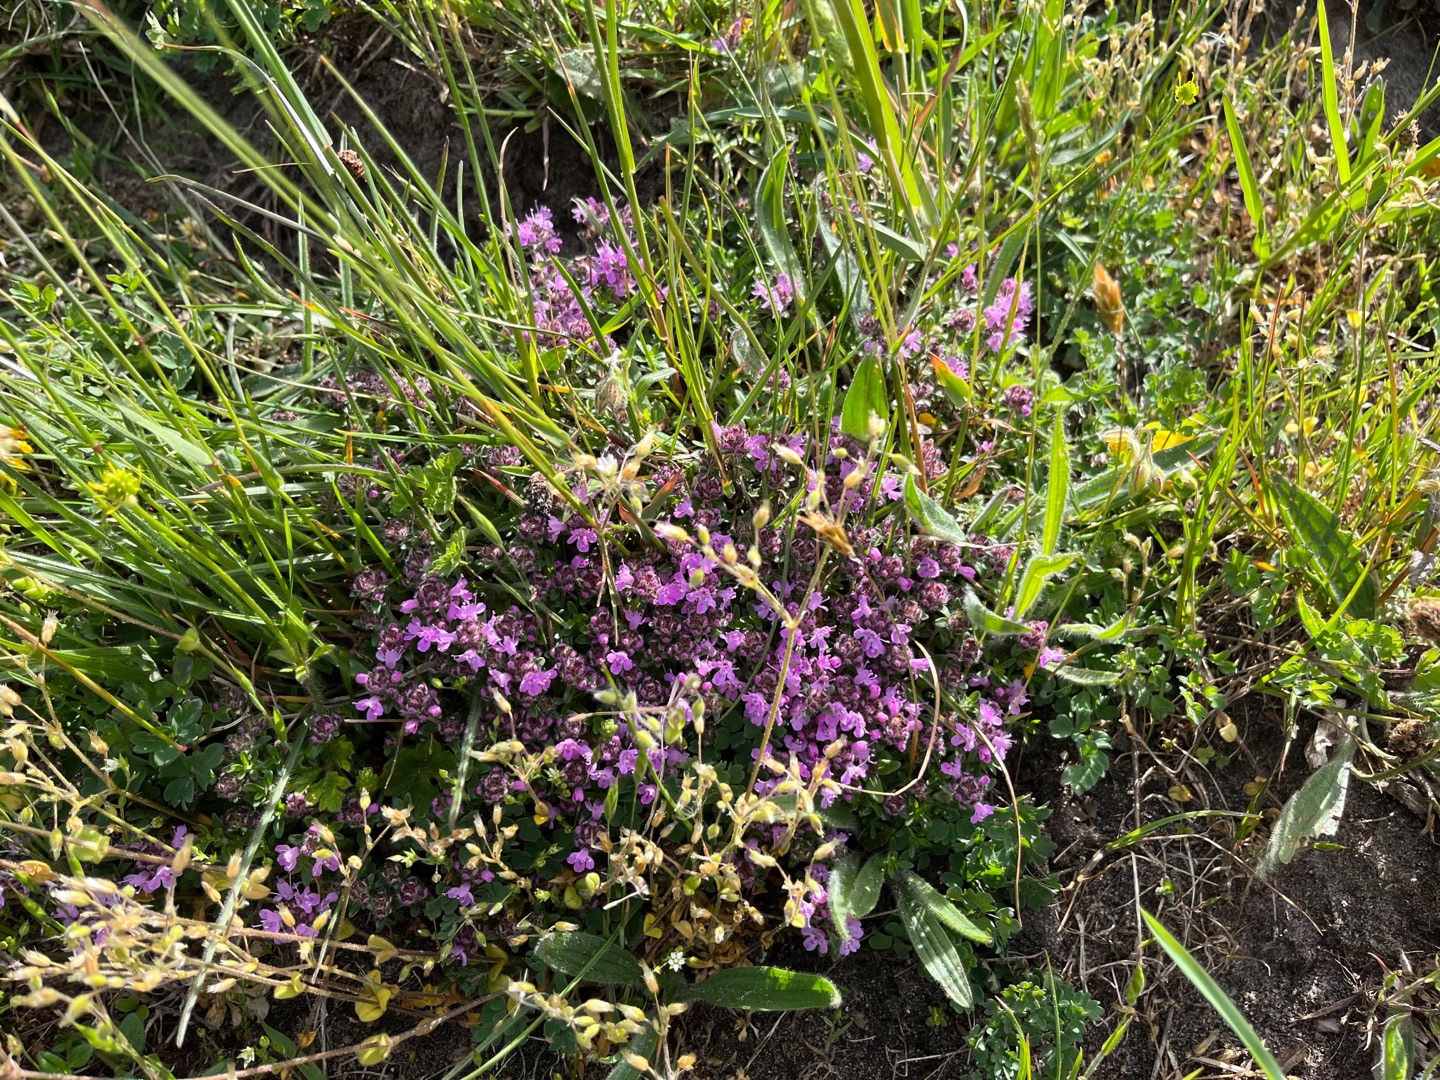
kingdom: Plantae
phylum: Tracheophyta
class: Magnoliopsida
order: Lamiales
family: Lamiaceae
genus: Thymus
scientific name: Thymus serpyllum
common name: Smalbladet timian
